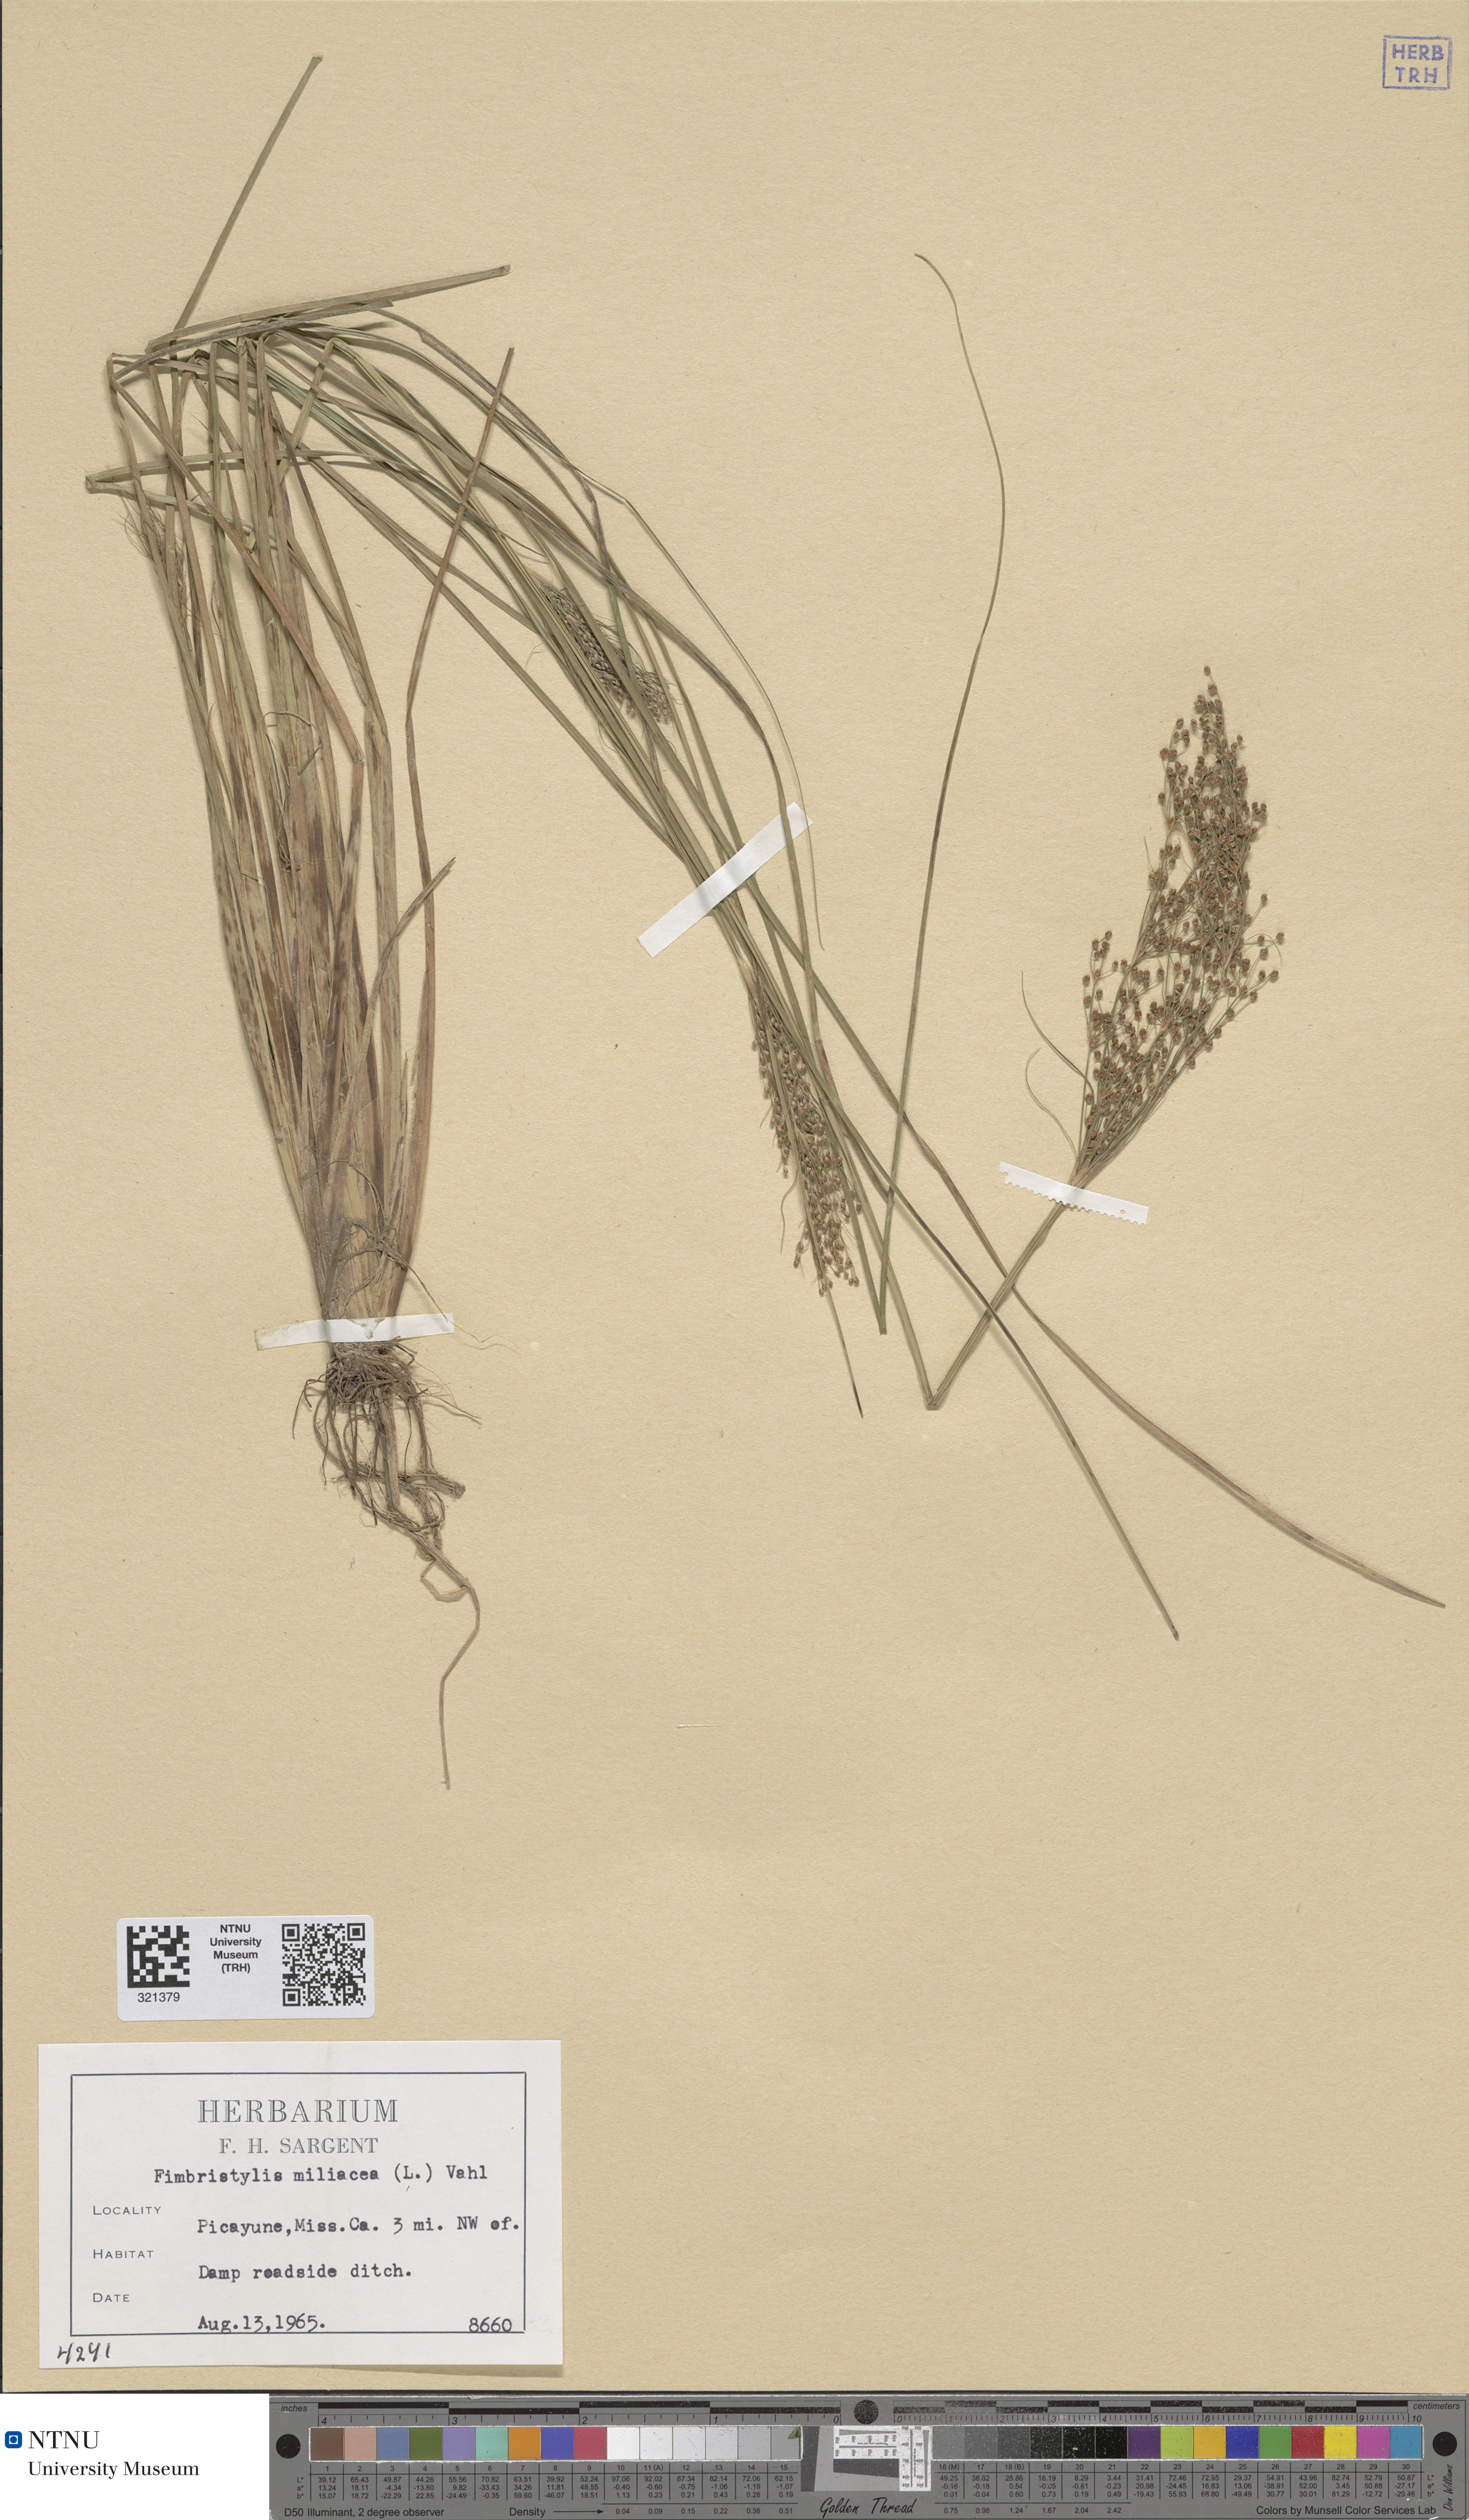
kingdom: Plantae
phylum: Tracheophyta
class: Liliopsida
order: Poales
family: Cyperaceae
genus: Fimbristylis
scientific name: Fimbristylis quinquangularis
